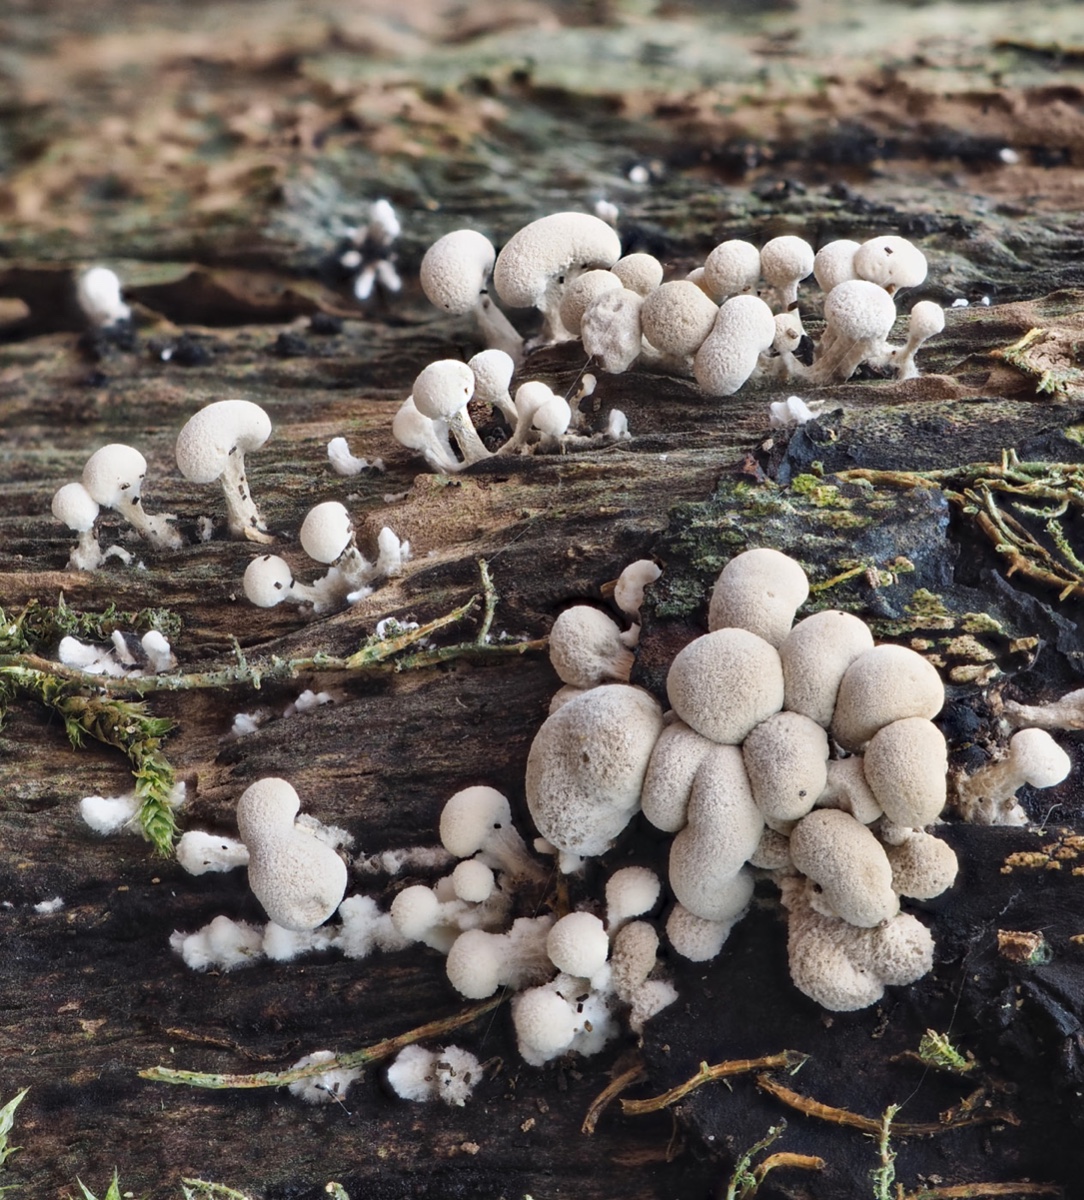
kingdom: Fungi
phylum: Basidiomycota
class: Atractiellomycetes
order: Atractiellales
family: Phleogenaceae
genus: Phleogena
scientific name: Phleogena faginea
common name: pudderkølle
